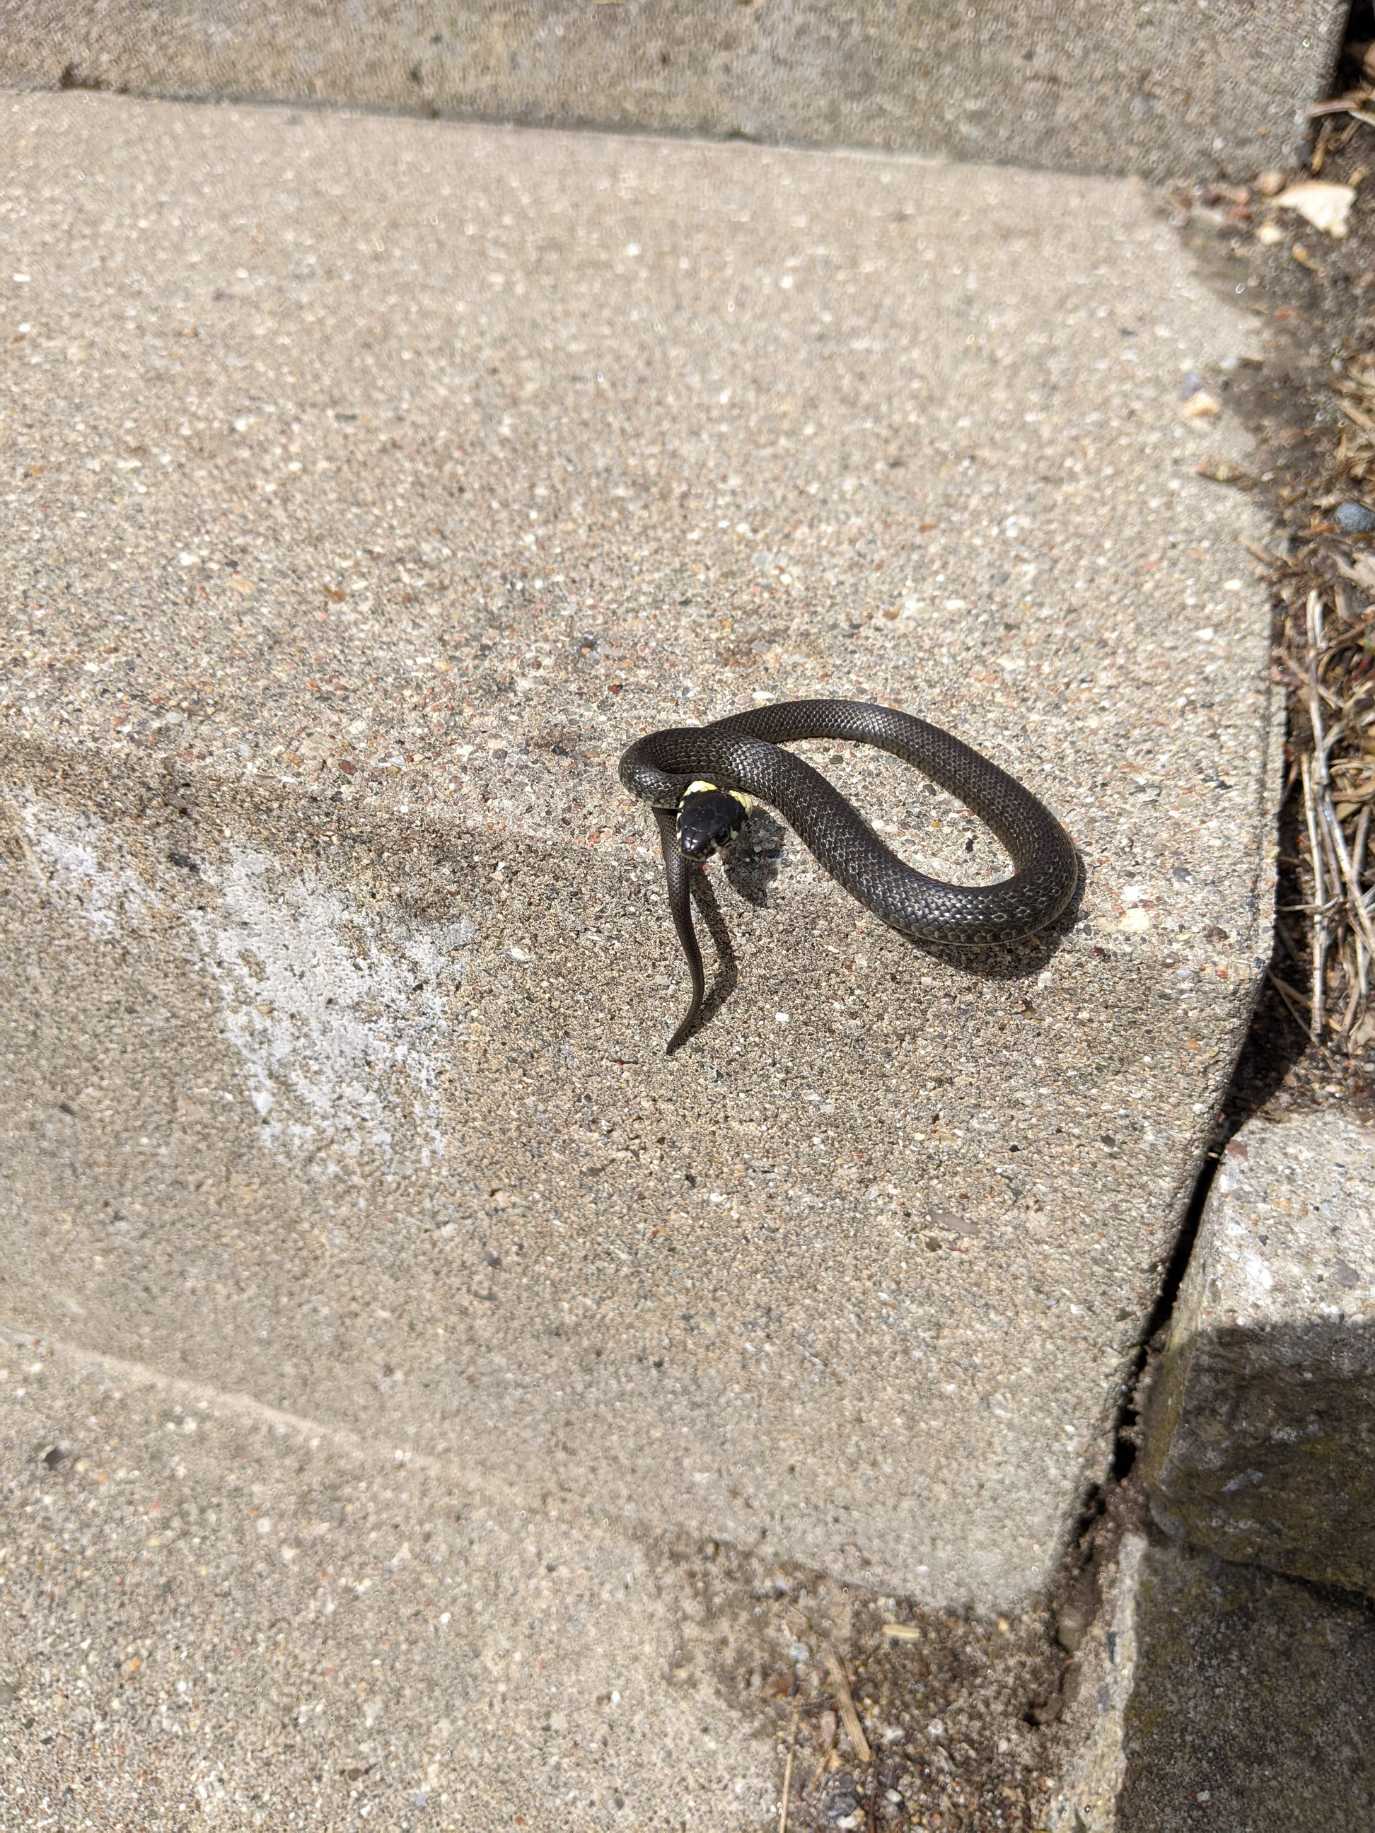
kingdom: Animalia
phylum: Chordata
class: Squamata
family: Colubridae
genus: Natrix
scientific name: Natrix natrix
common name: Snog
